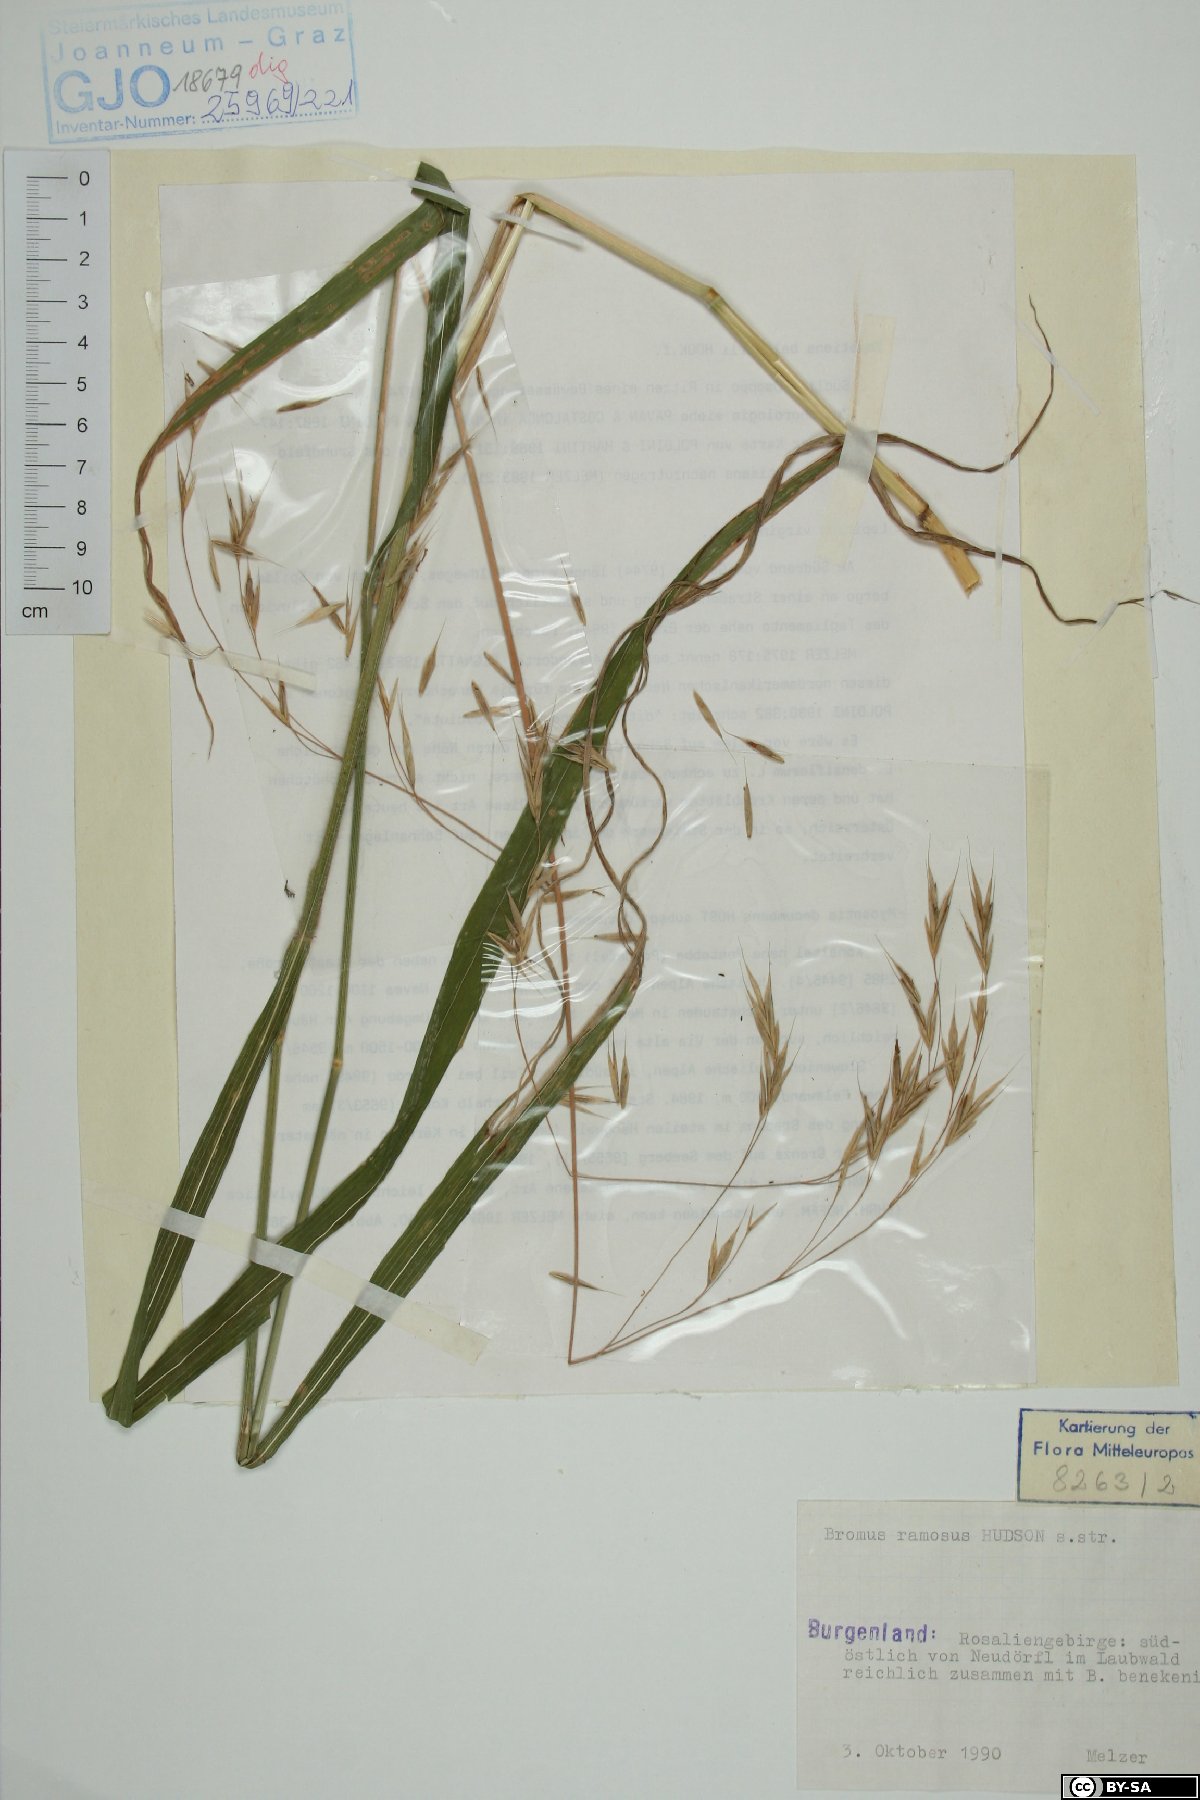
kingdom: Plantae
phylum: Tracheophyta
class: Liliopsida
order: Poales
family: Poaceae
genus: Bromus
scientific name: Bromus ramosus
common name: Hairy brome
